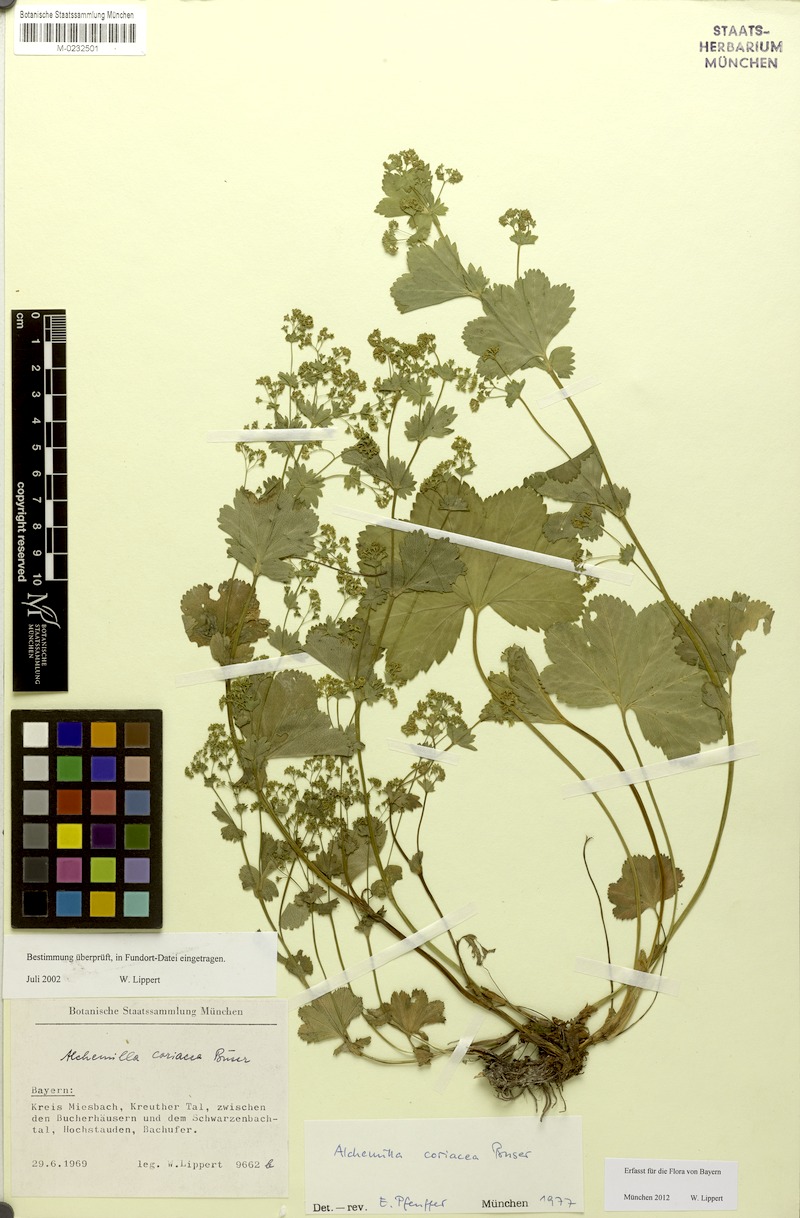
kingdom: Plantae
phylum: Tracheophyta
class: Magnoliopsida
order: Rosales
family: Rosaceae
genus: Alchemilla
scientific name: Alchemilla coriacea
